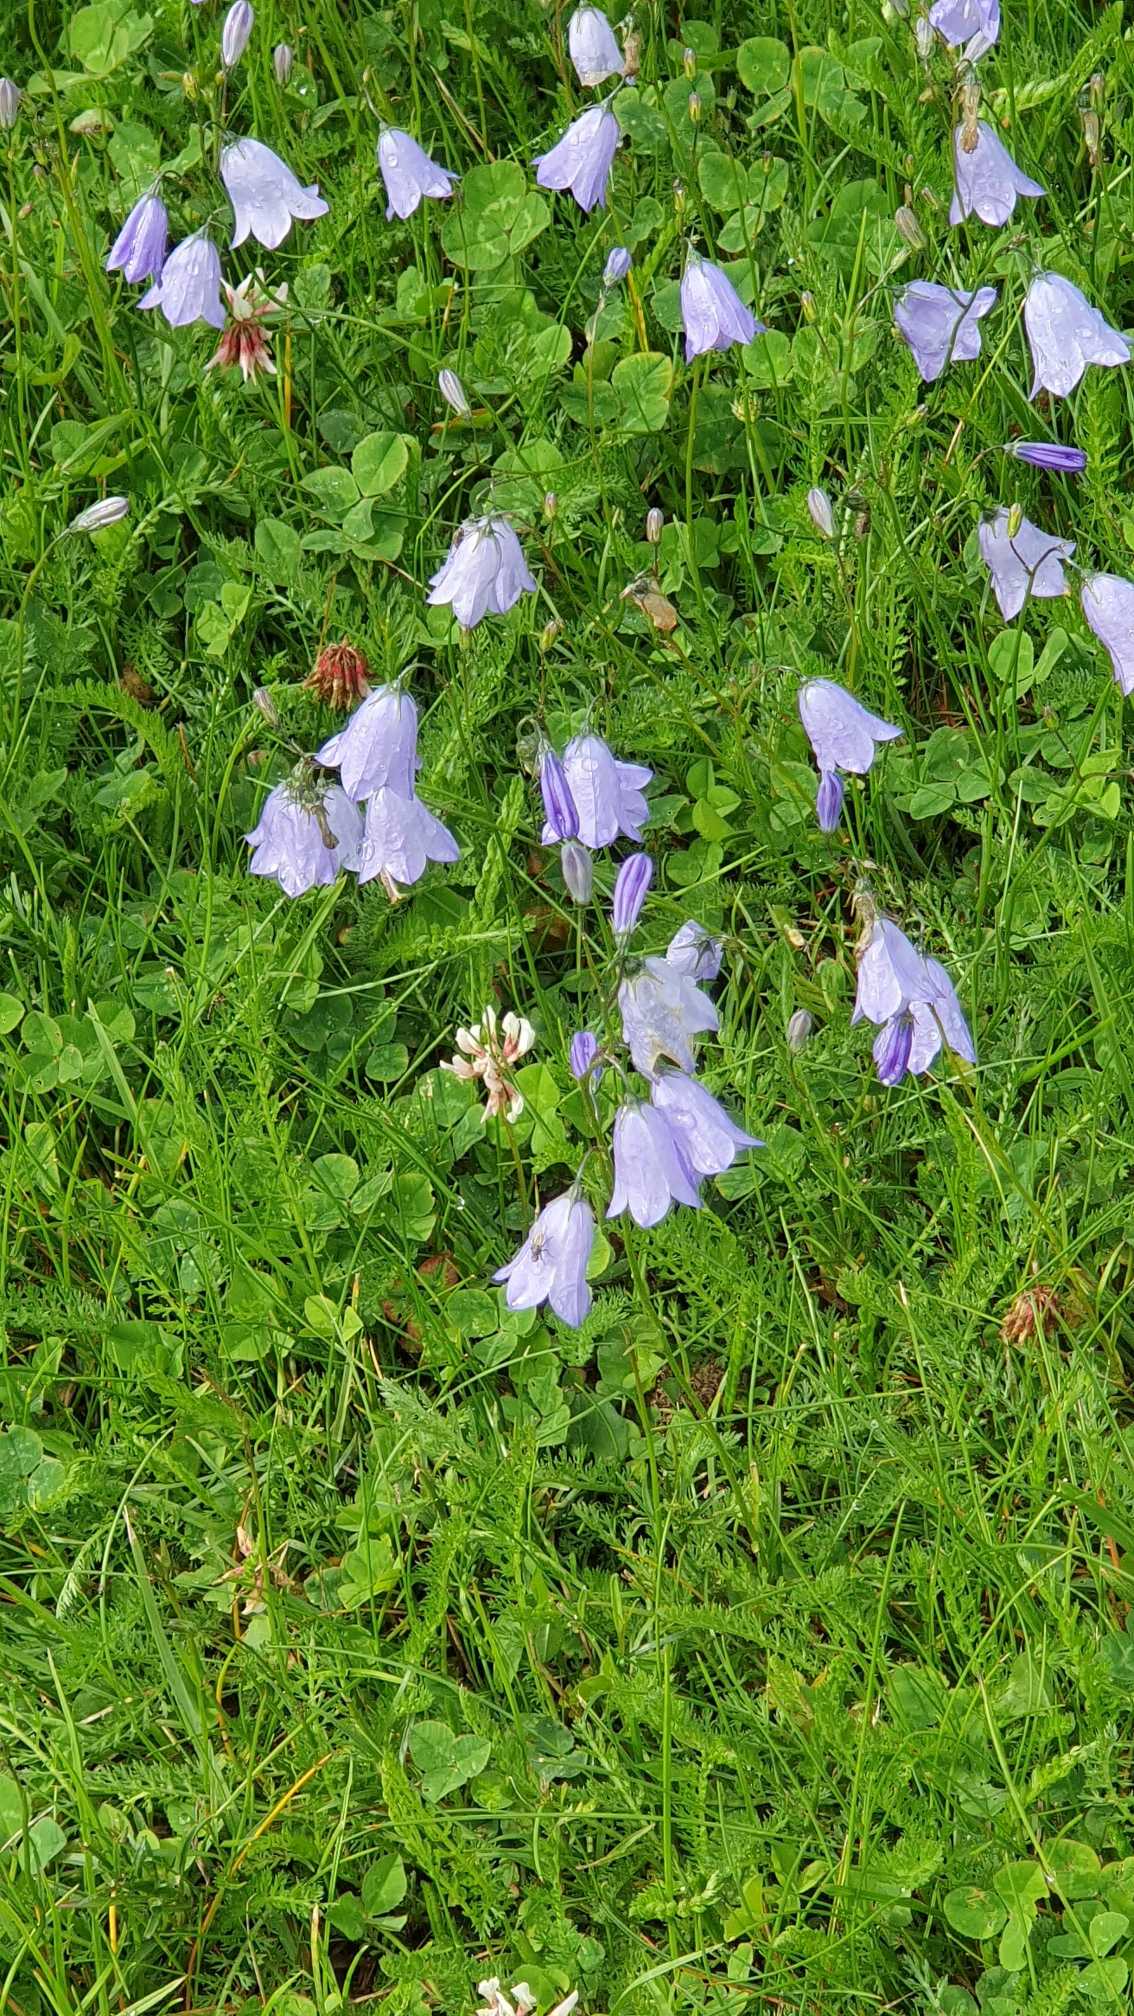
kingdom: Plantae
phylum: Tracheophyta
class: Magnoliopsida
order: Asterales
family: Campanulaceae
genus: Campanula
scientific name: Campanula rotundifolia
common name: Liden klokke
